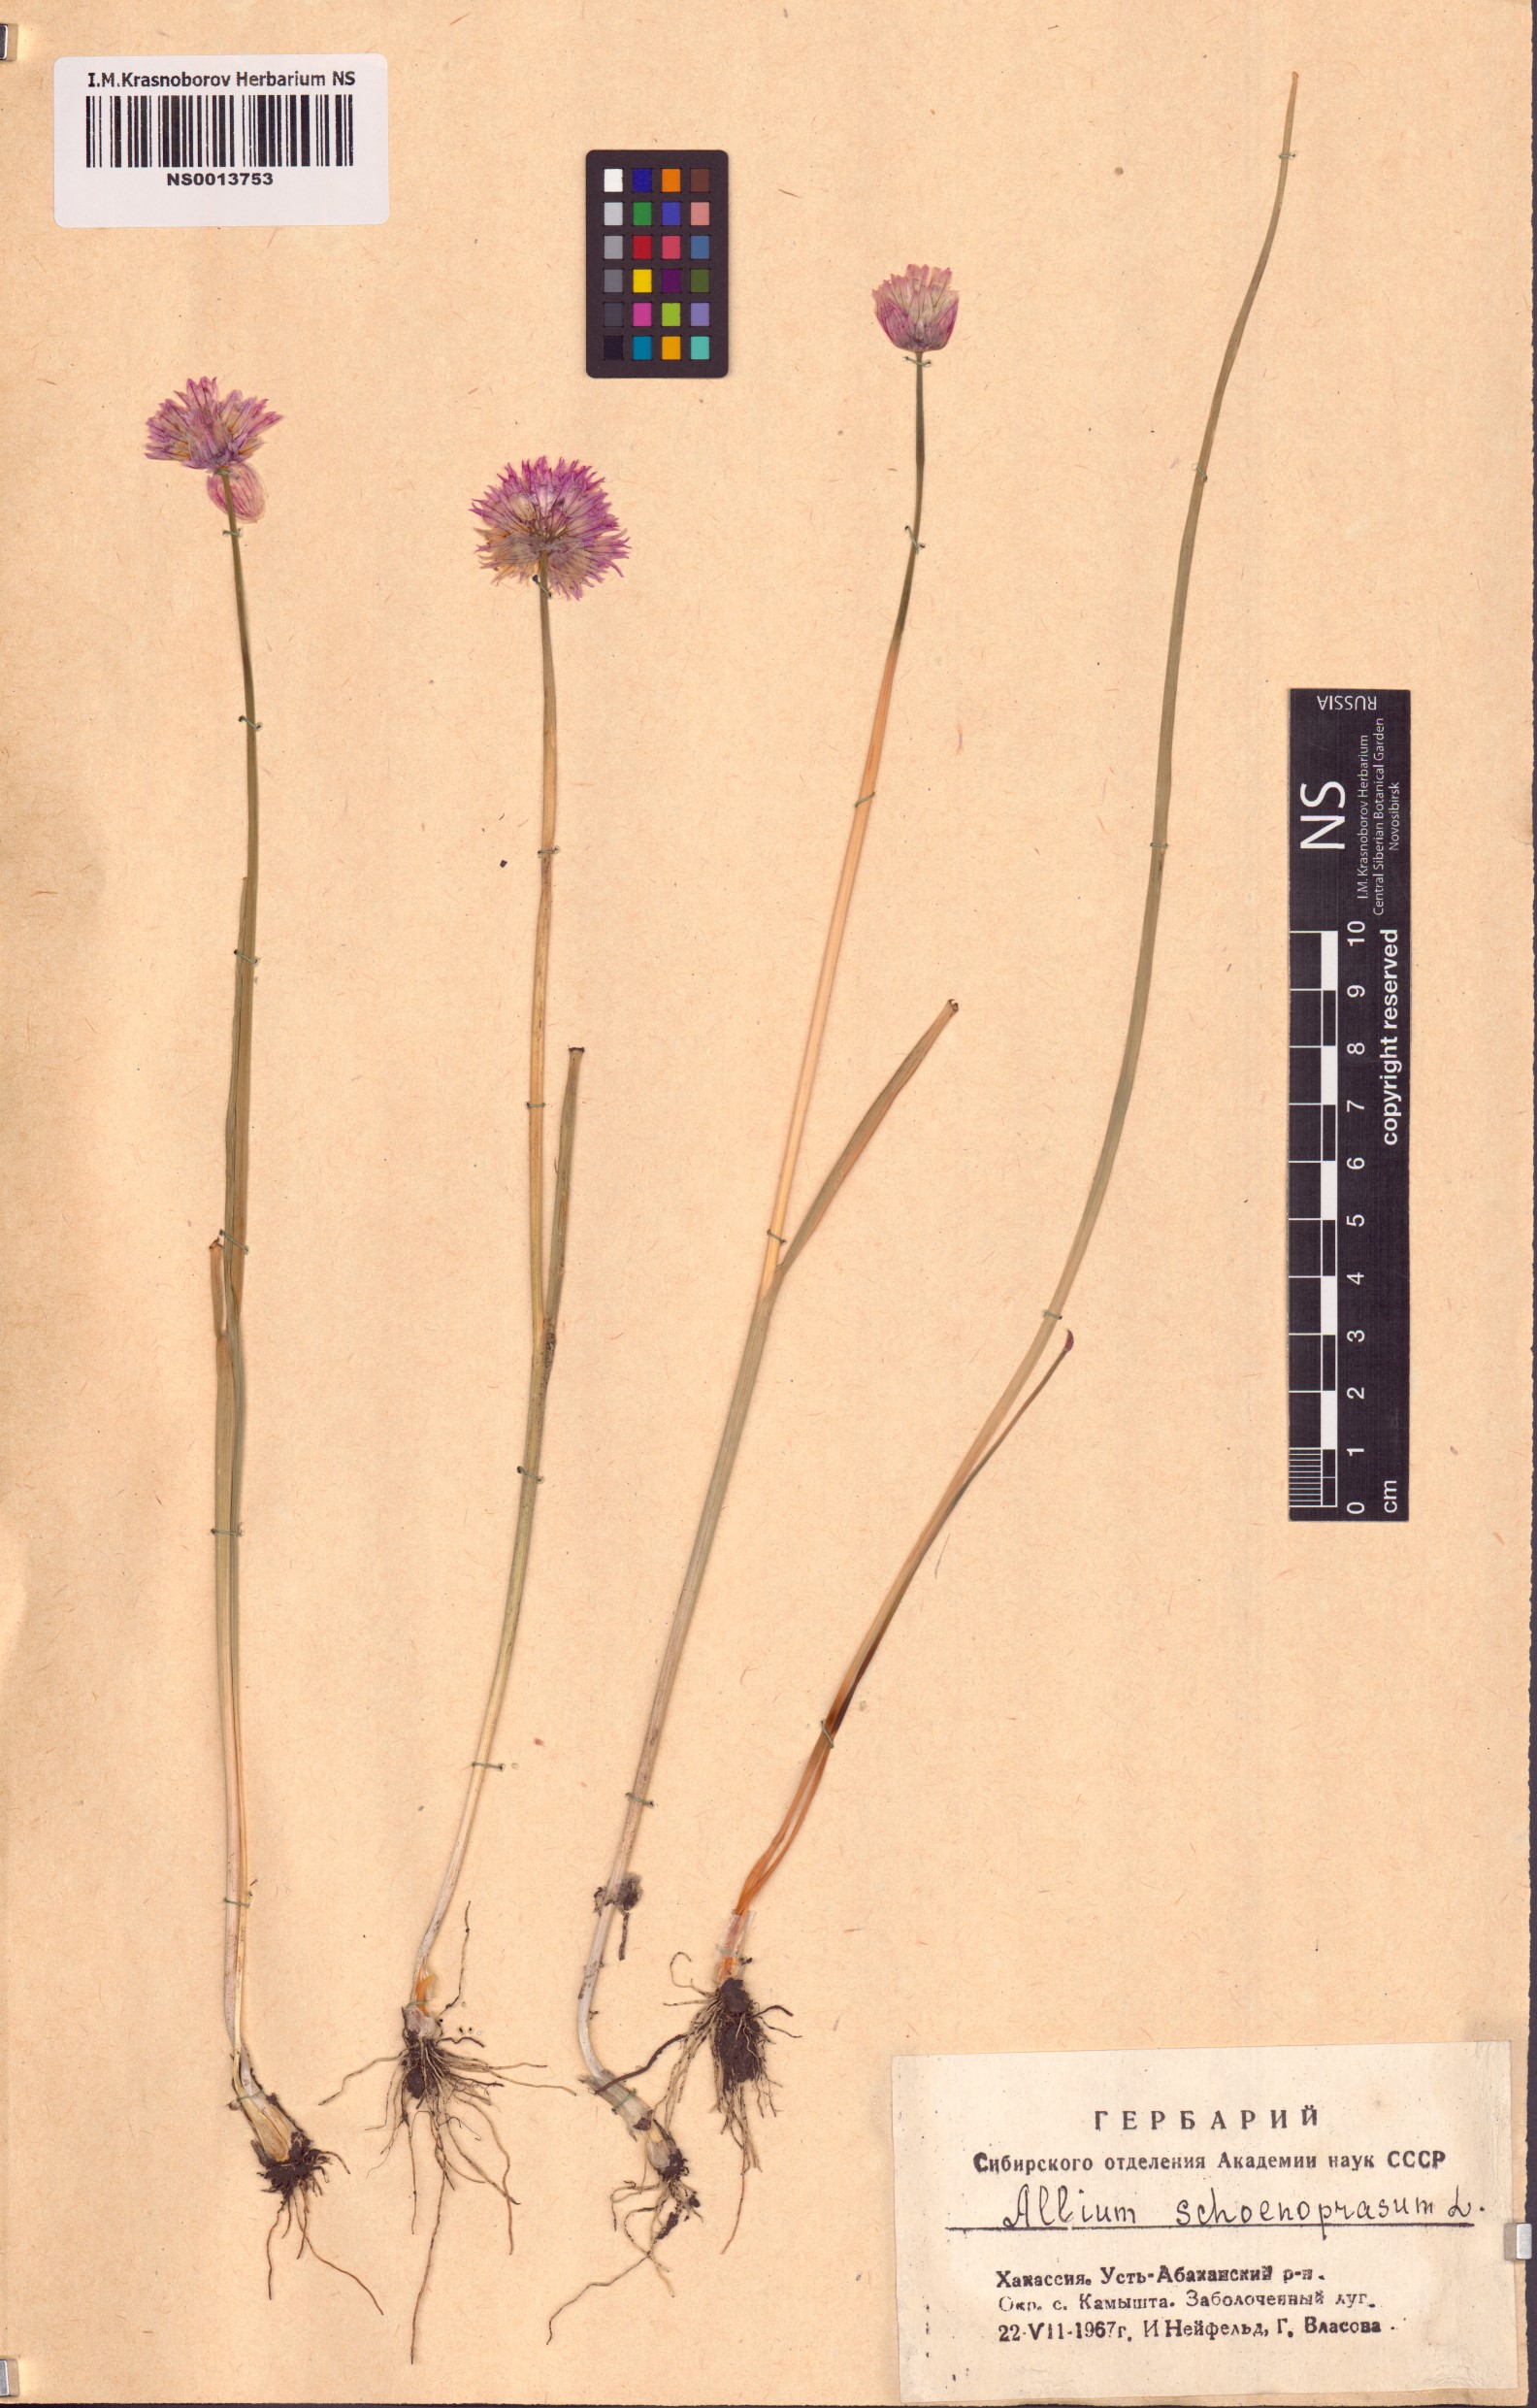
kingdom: Plantae
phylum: Tracheophyta
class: Liliopsida
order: Asparagales
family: Amaryllidaceae
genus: Allium
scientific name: Allium schoenoprasum
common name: Chives
